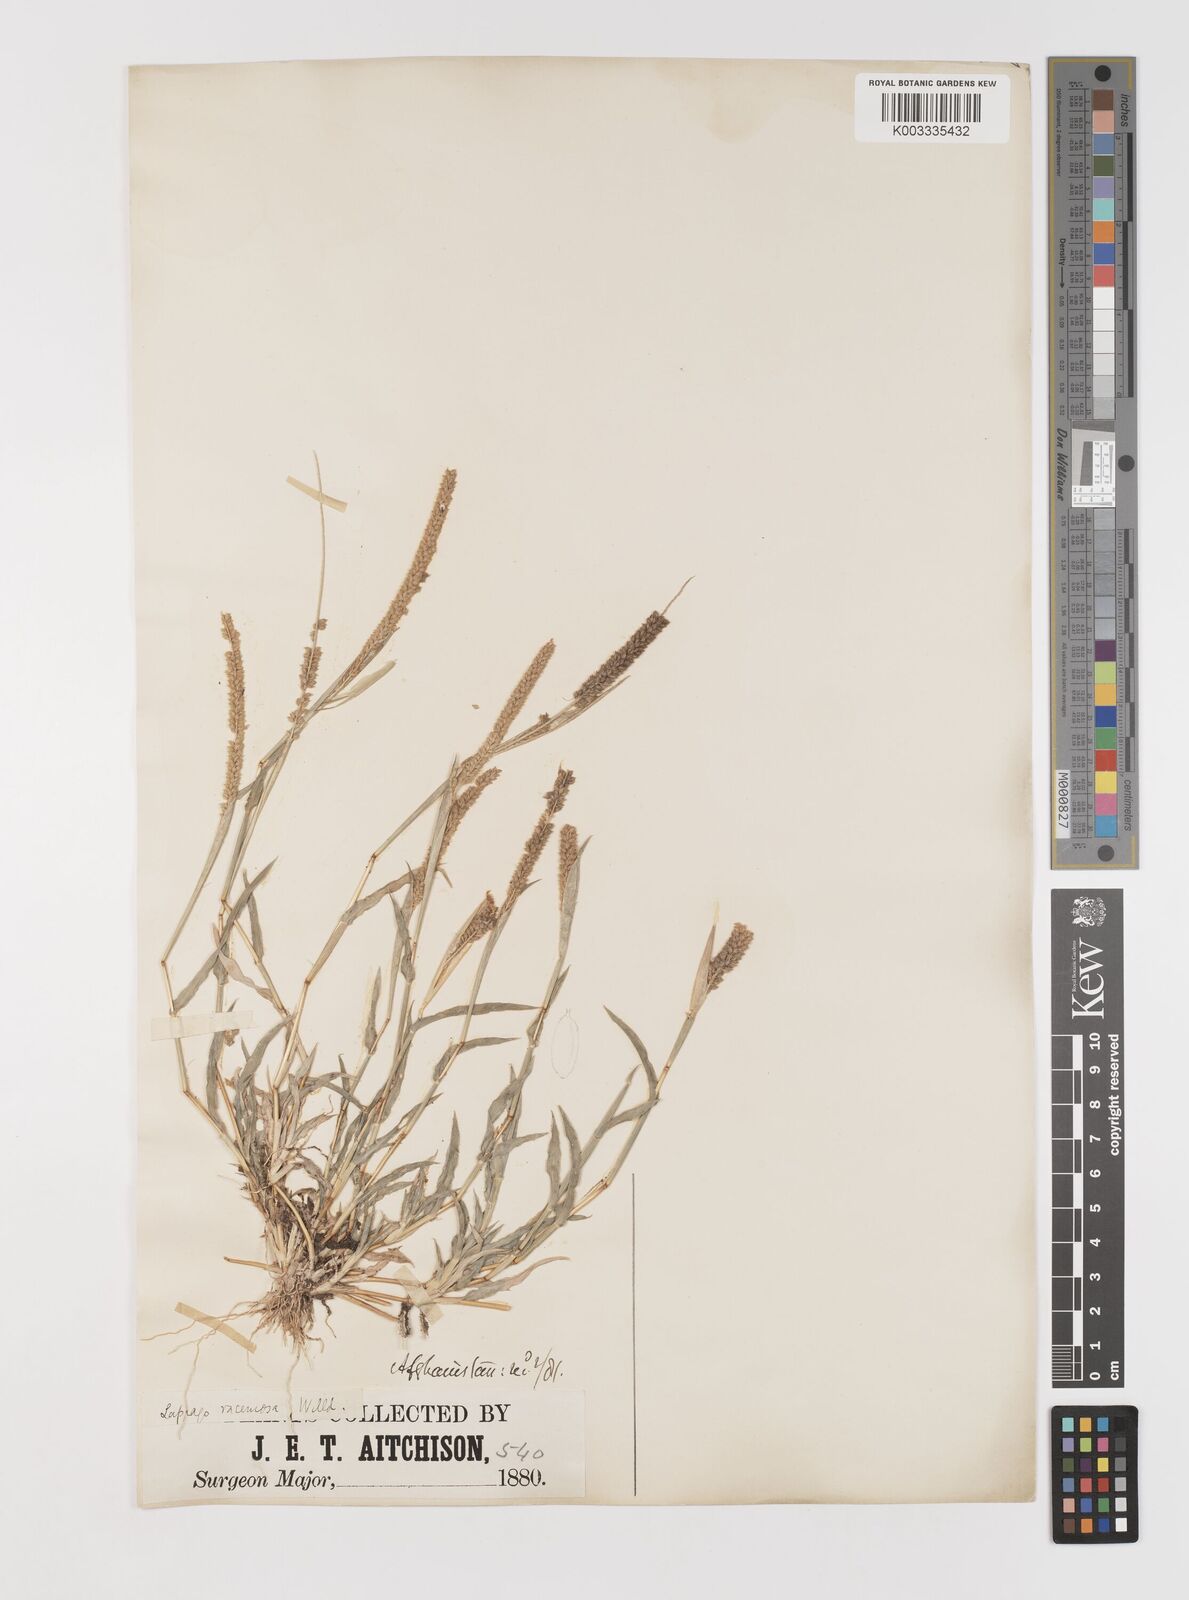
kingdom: Plantae
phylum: Tracheophyta
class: Liliopsida
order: Poales
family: Poaceae
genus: Tragus
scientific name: Tragus berteronianus
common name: African bur-grass
